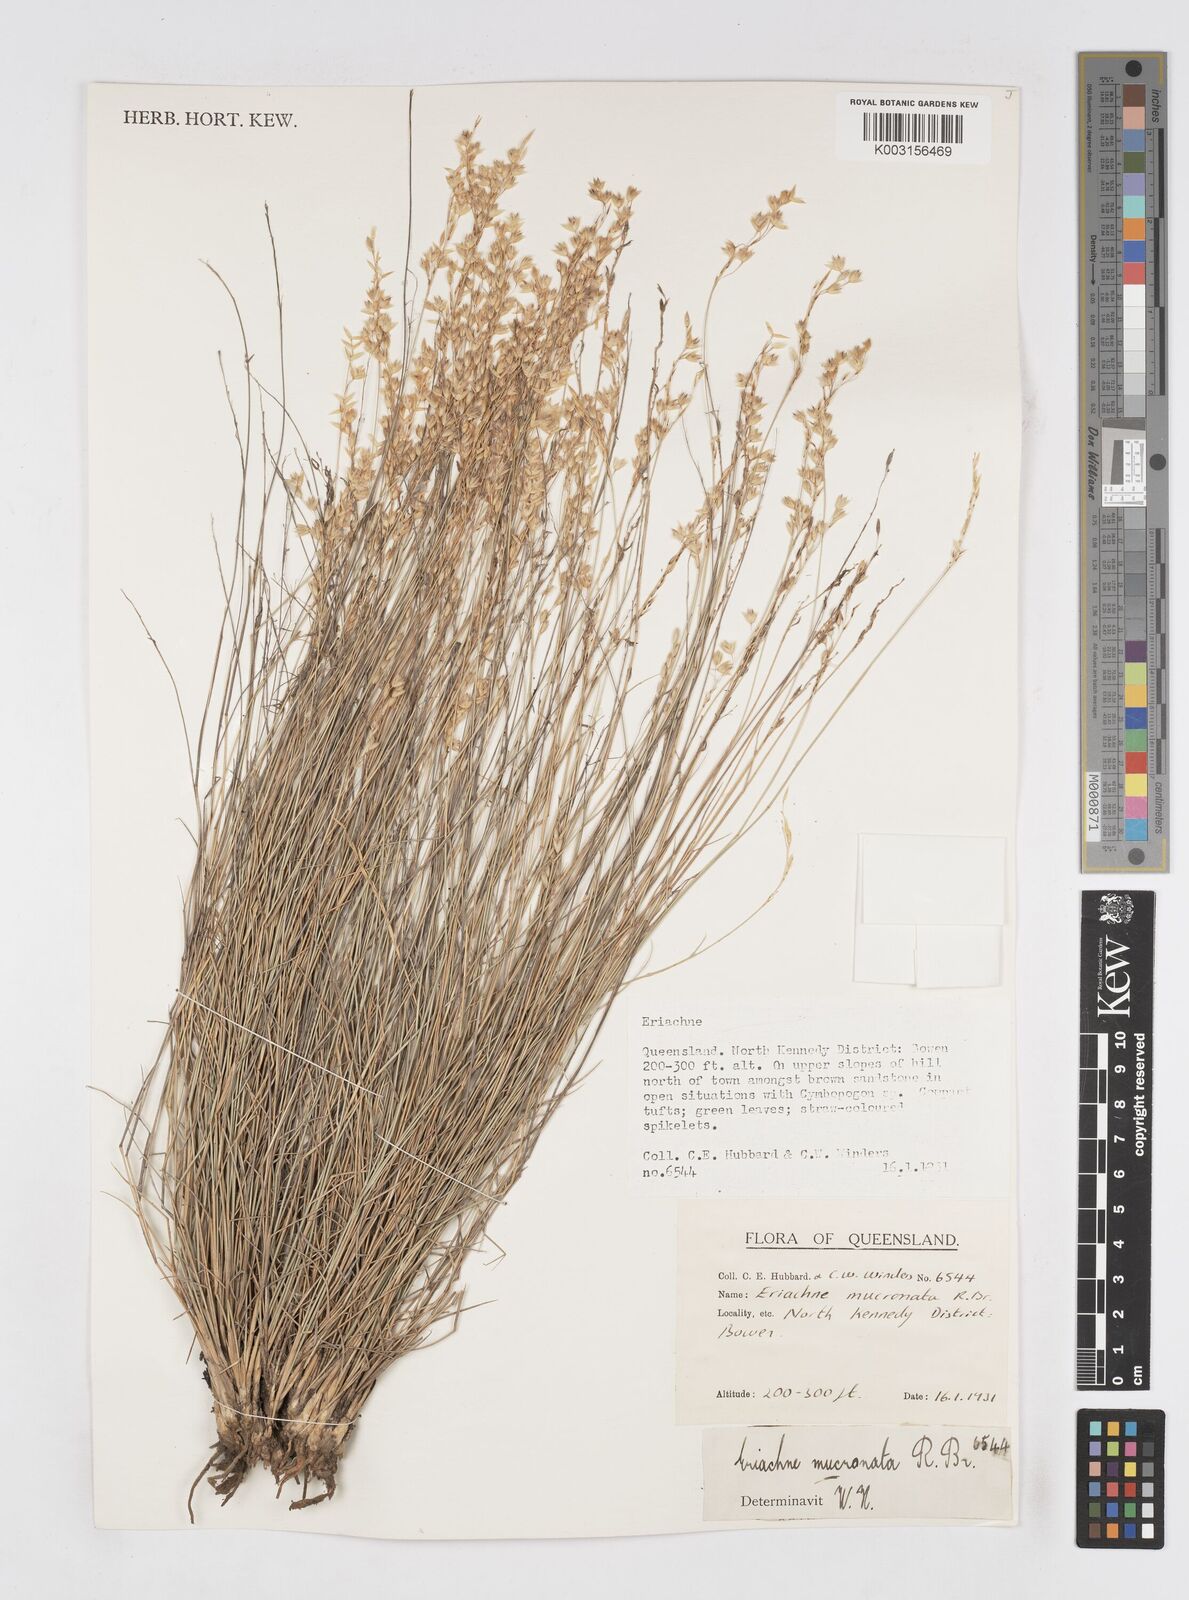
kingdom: Plantae
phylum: Tracheophyta
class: Liliopsida
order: Poales
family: Poaceae
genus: Eriachne
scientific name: Eriachne mucronata
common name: Mountain wanderrie grass
